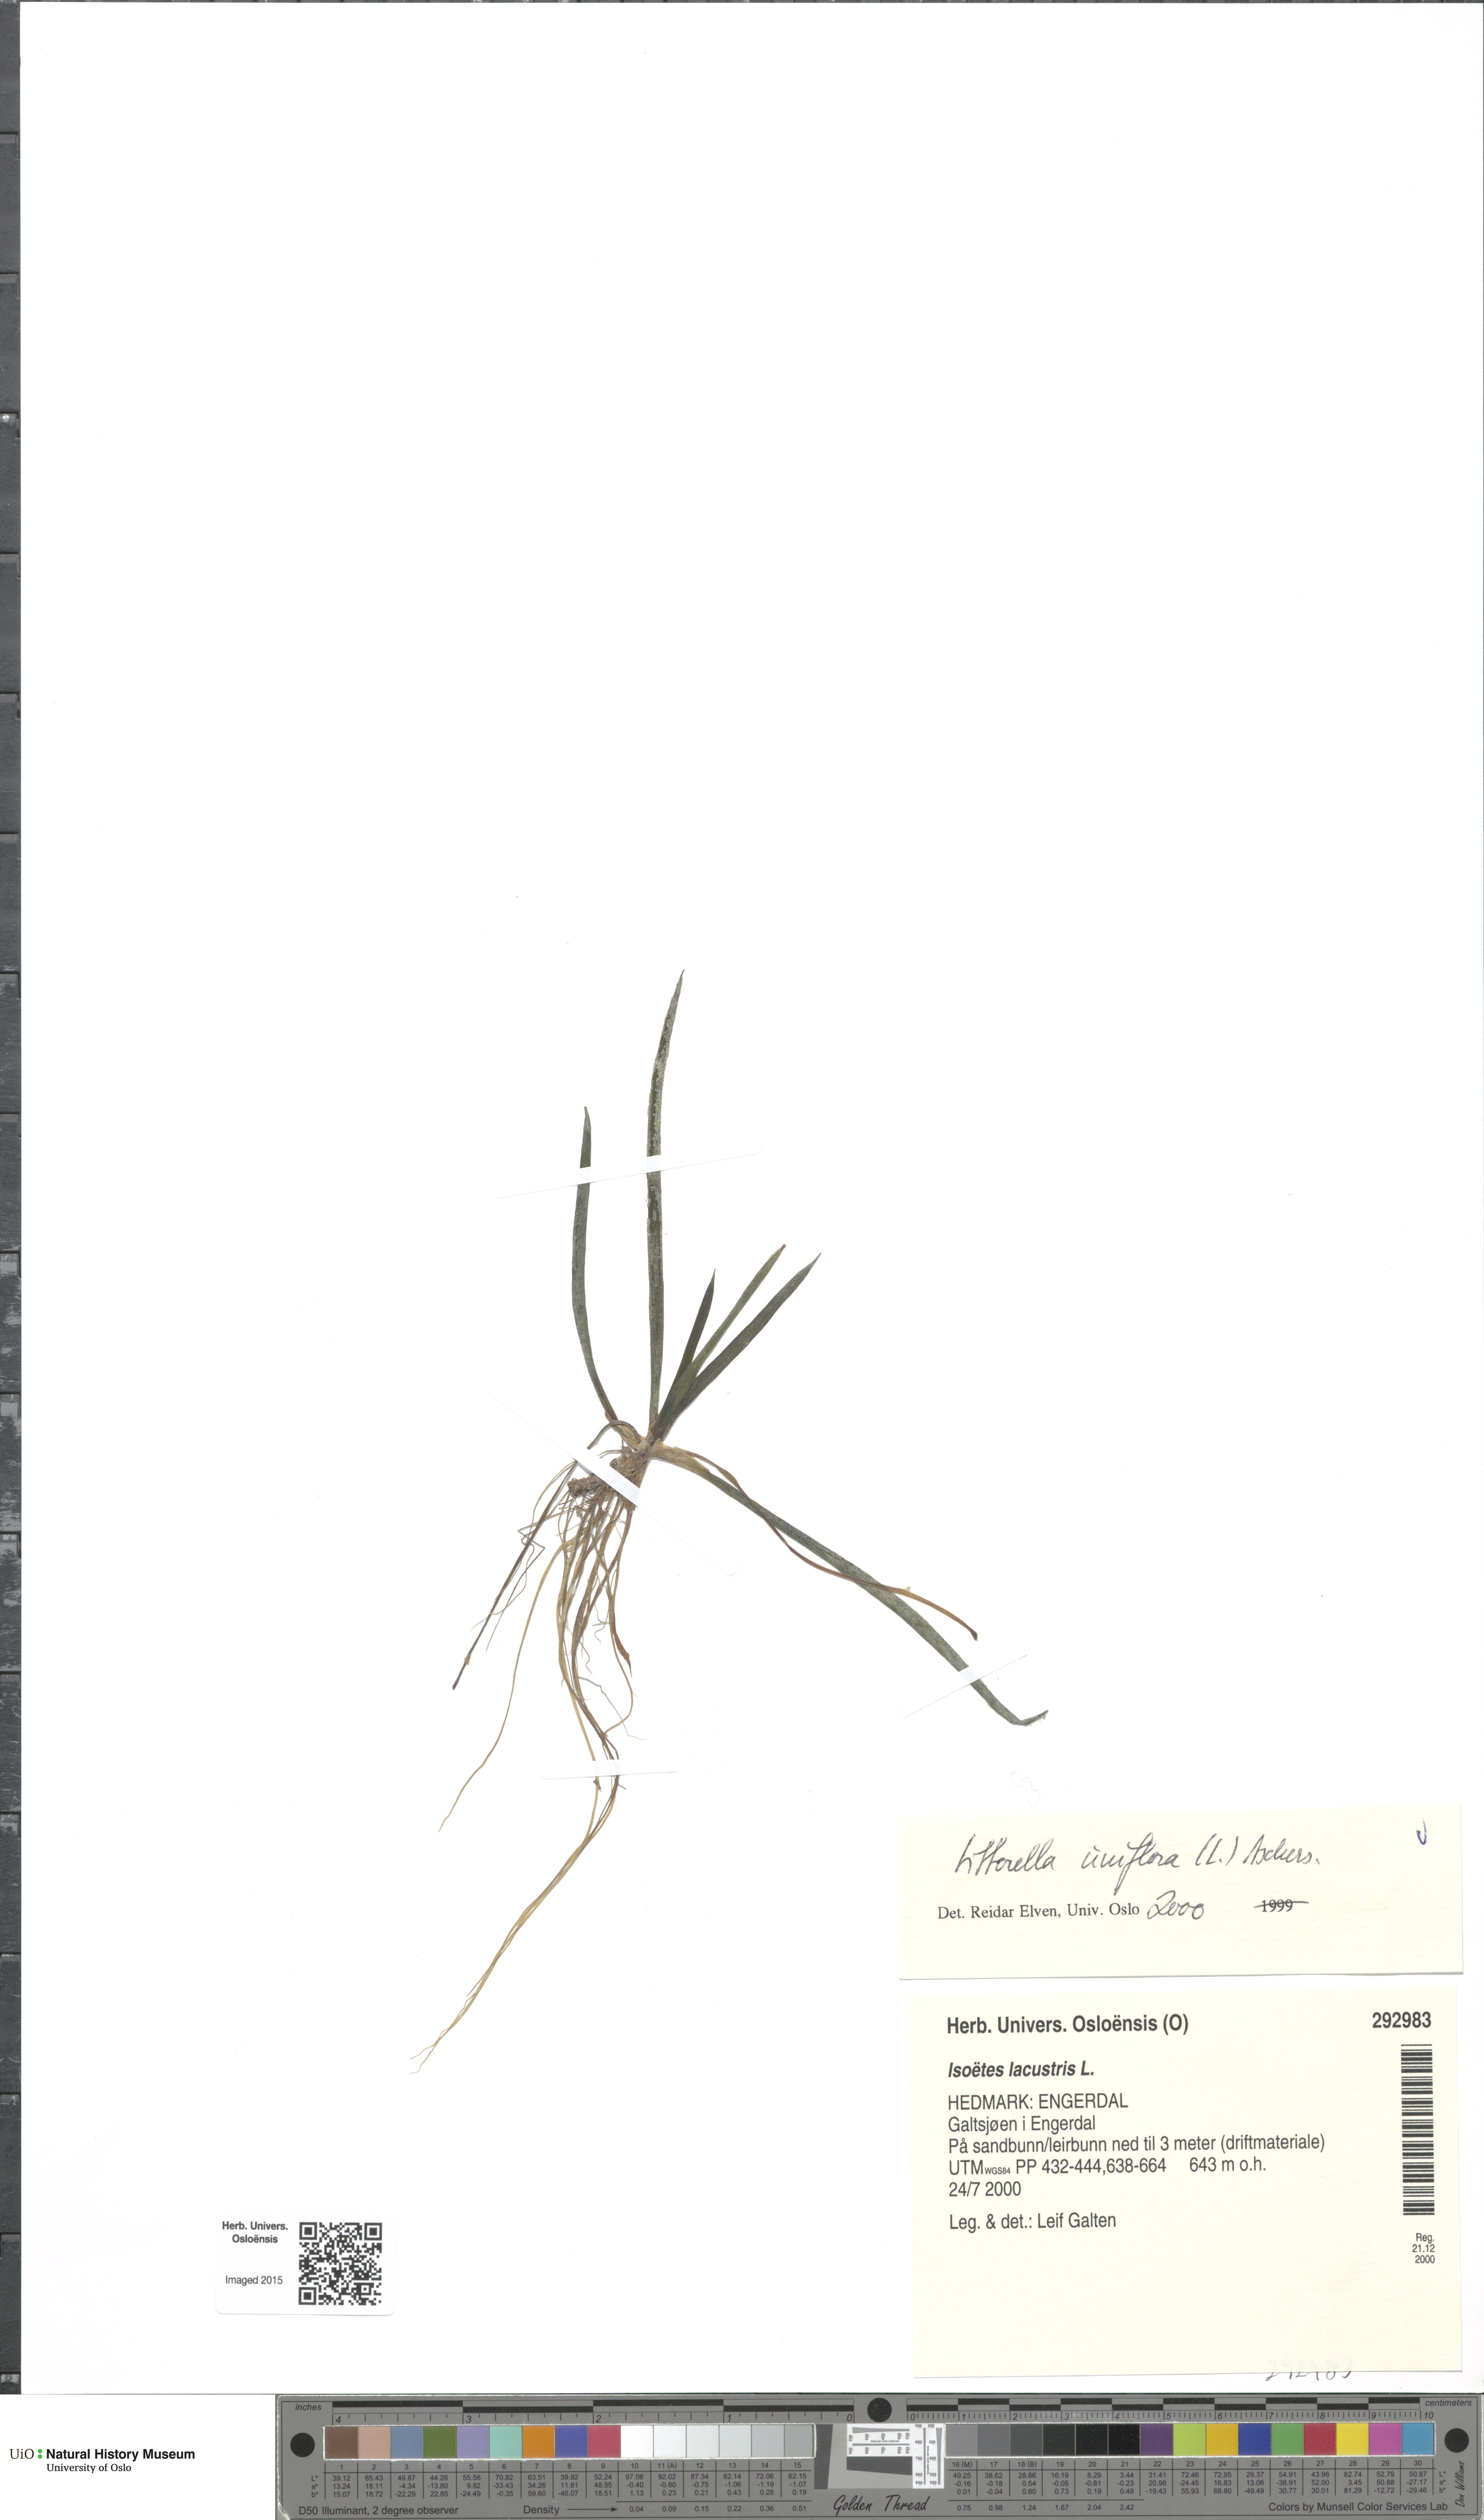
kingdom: Plantae
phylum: Tracheophyta
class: Magnoliopsida
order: Lamiales
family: Plantaginaceae
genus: Littorella
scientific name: Littorella uniflora
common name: Shoreweed
